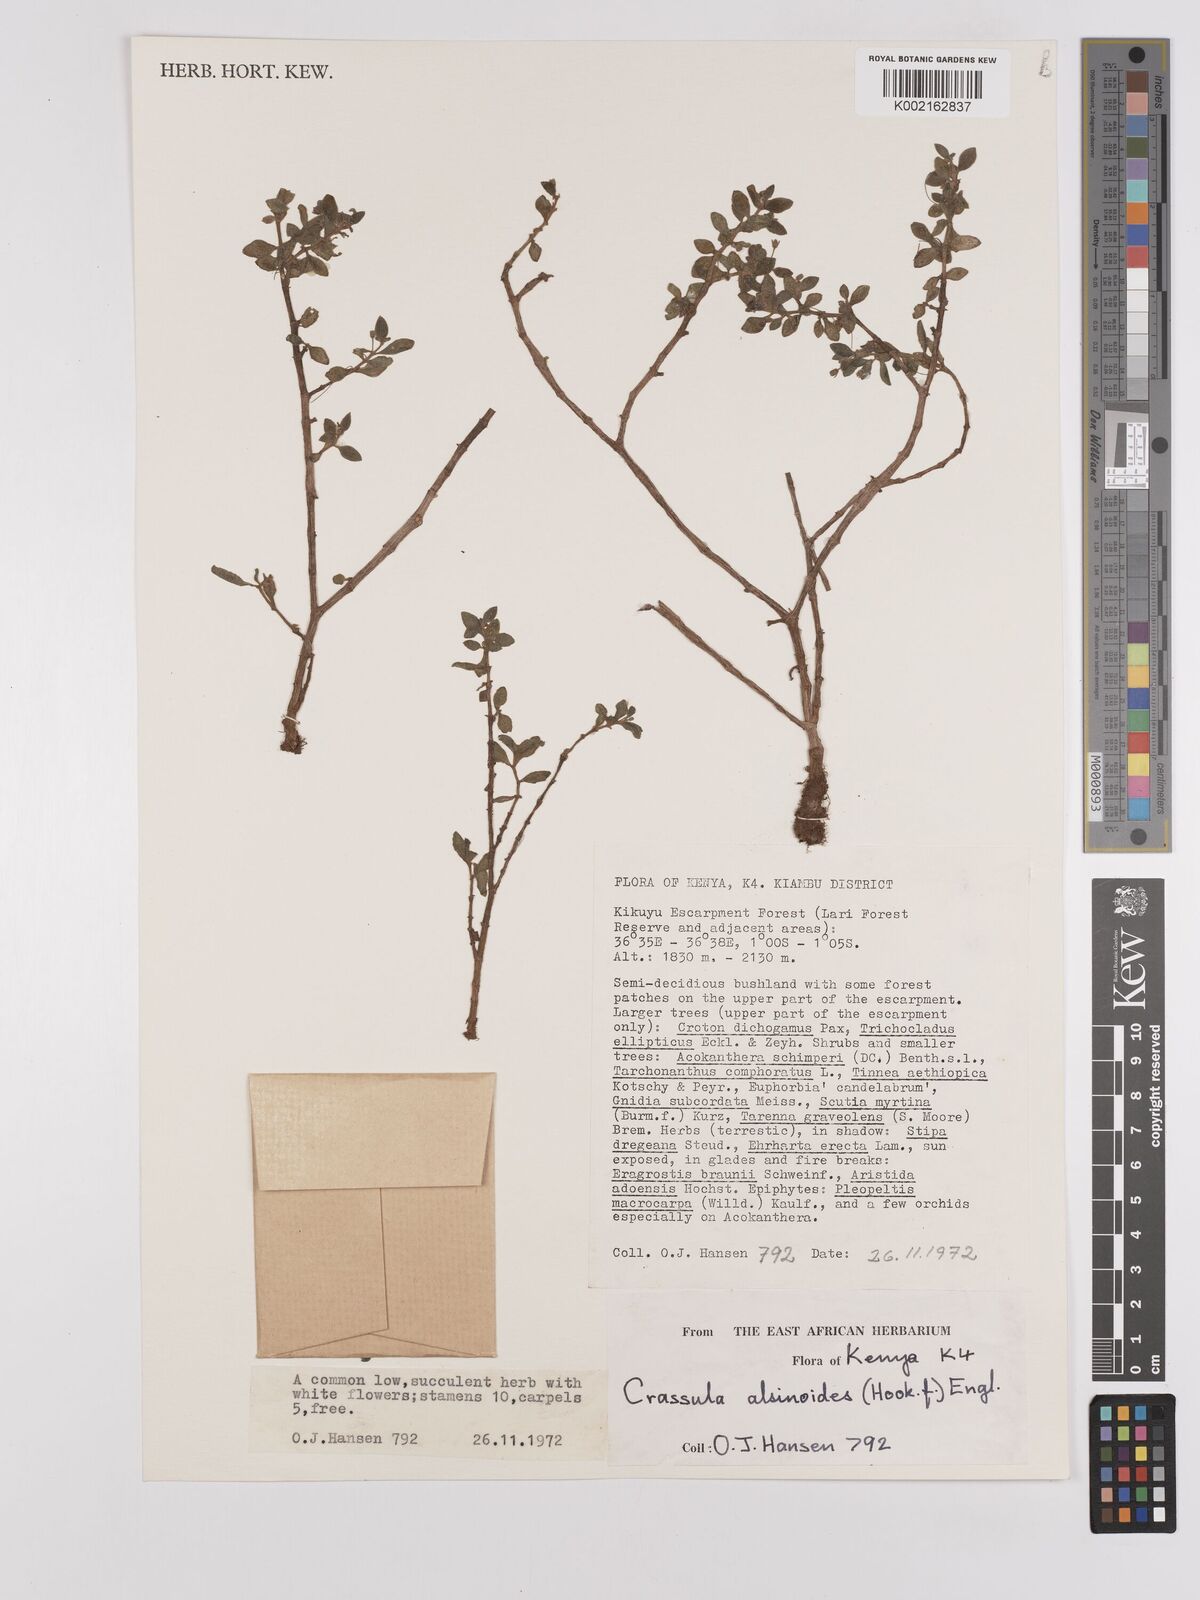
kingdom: Plantae
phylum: Tracheophyta
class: Magnoliopsida
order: Saxifragales
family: Crassulaceae
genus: Crassula
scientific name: Crassula volkensii
